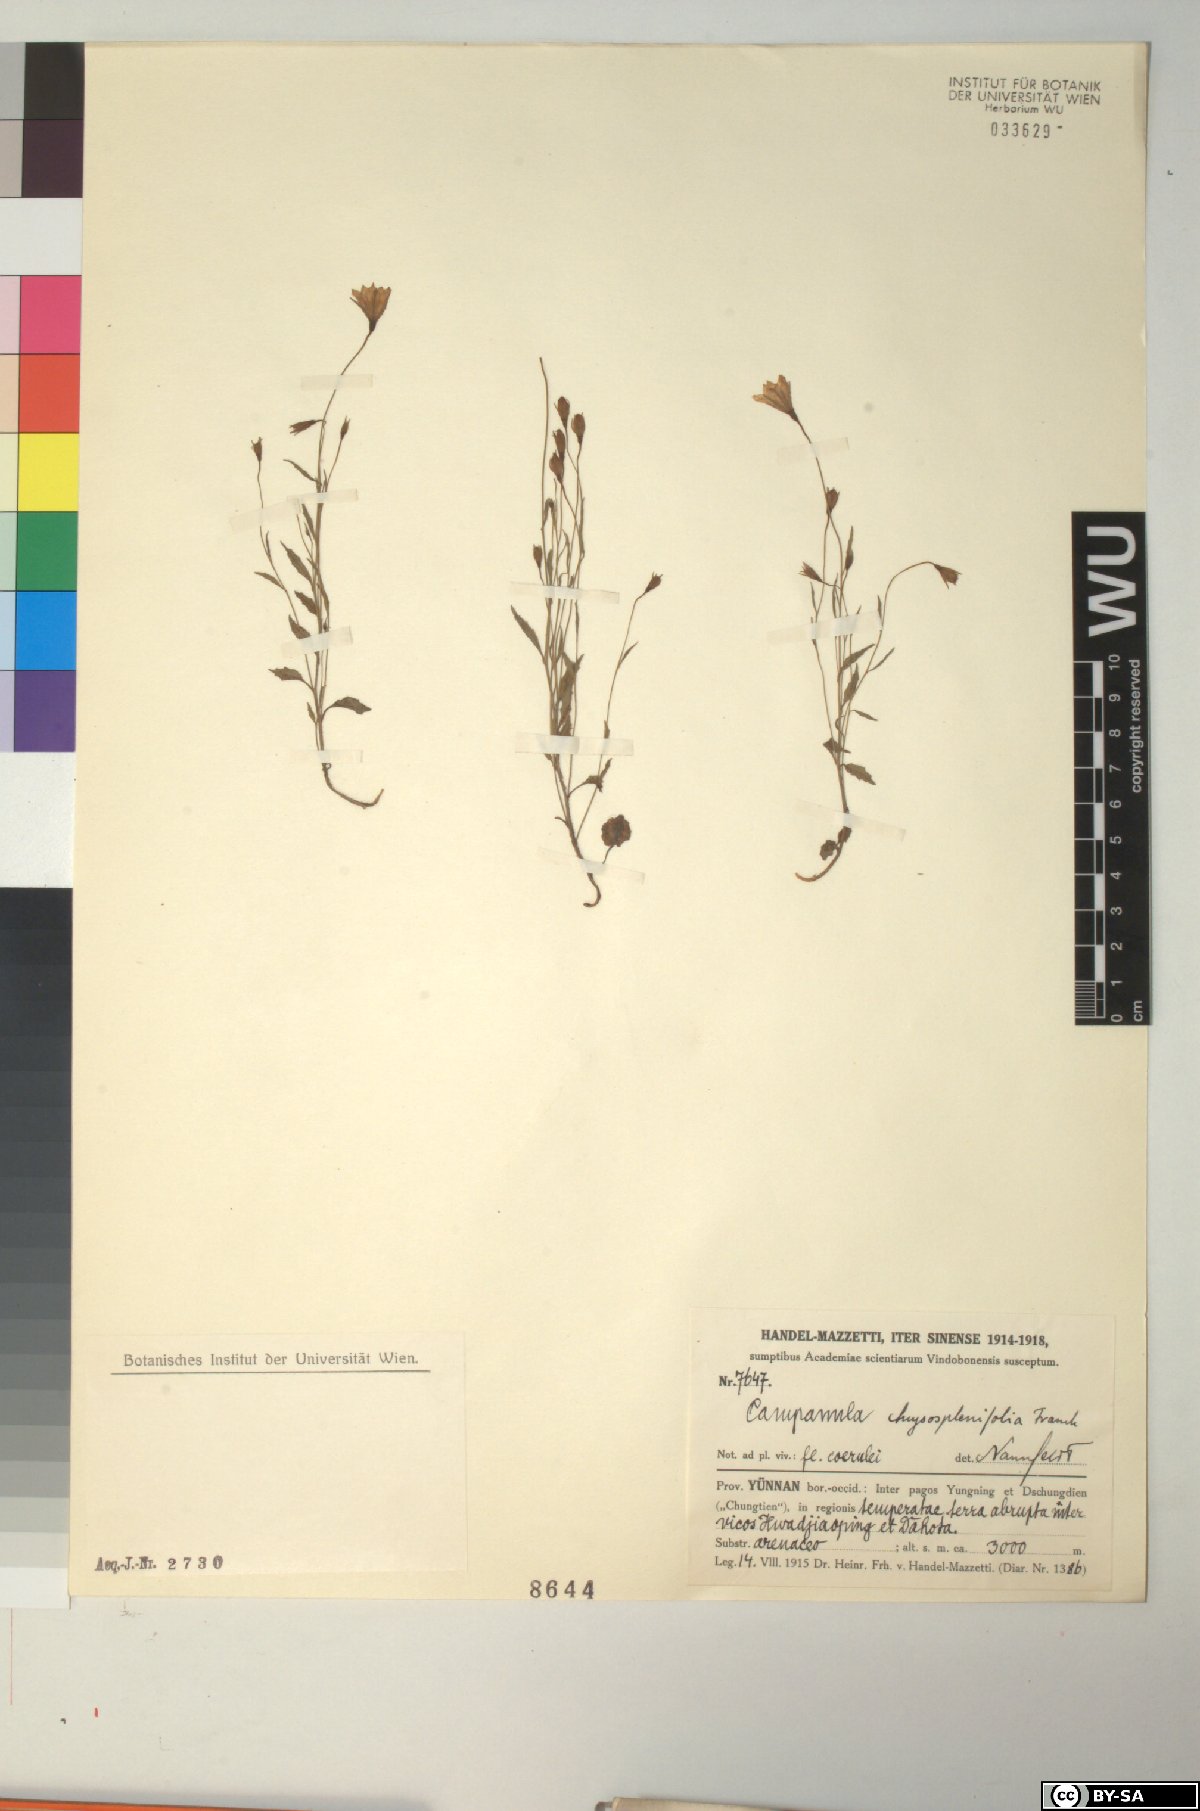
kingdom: Plantae
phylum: Tracheophyta
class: Magnoliopsida
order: Asterales
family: Campanulaceae
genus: Campanula
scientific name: Campanula chrysosplenifolia
